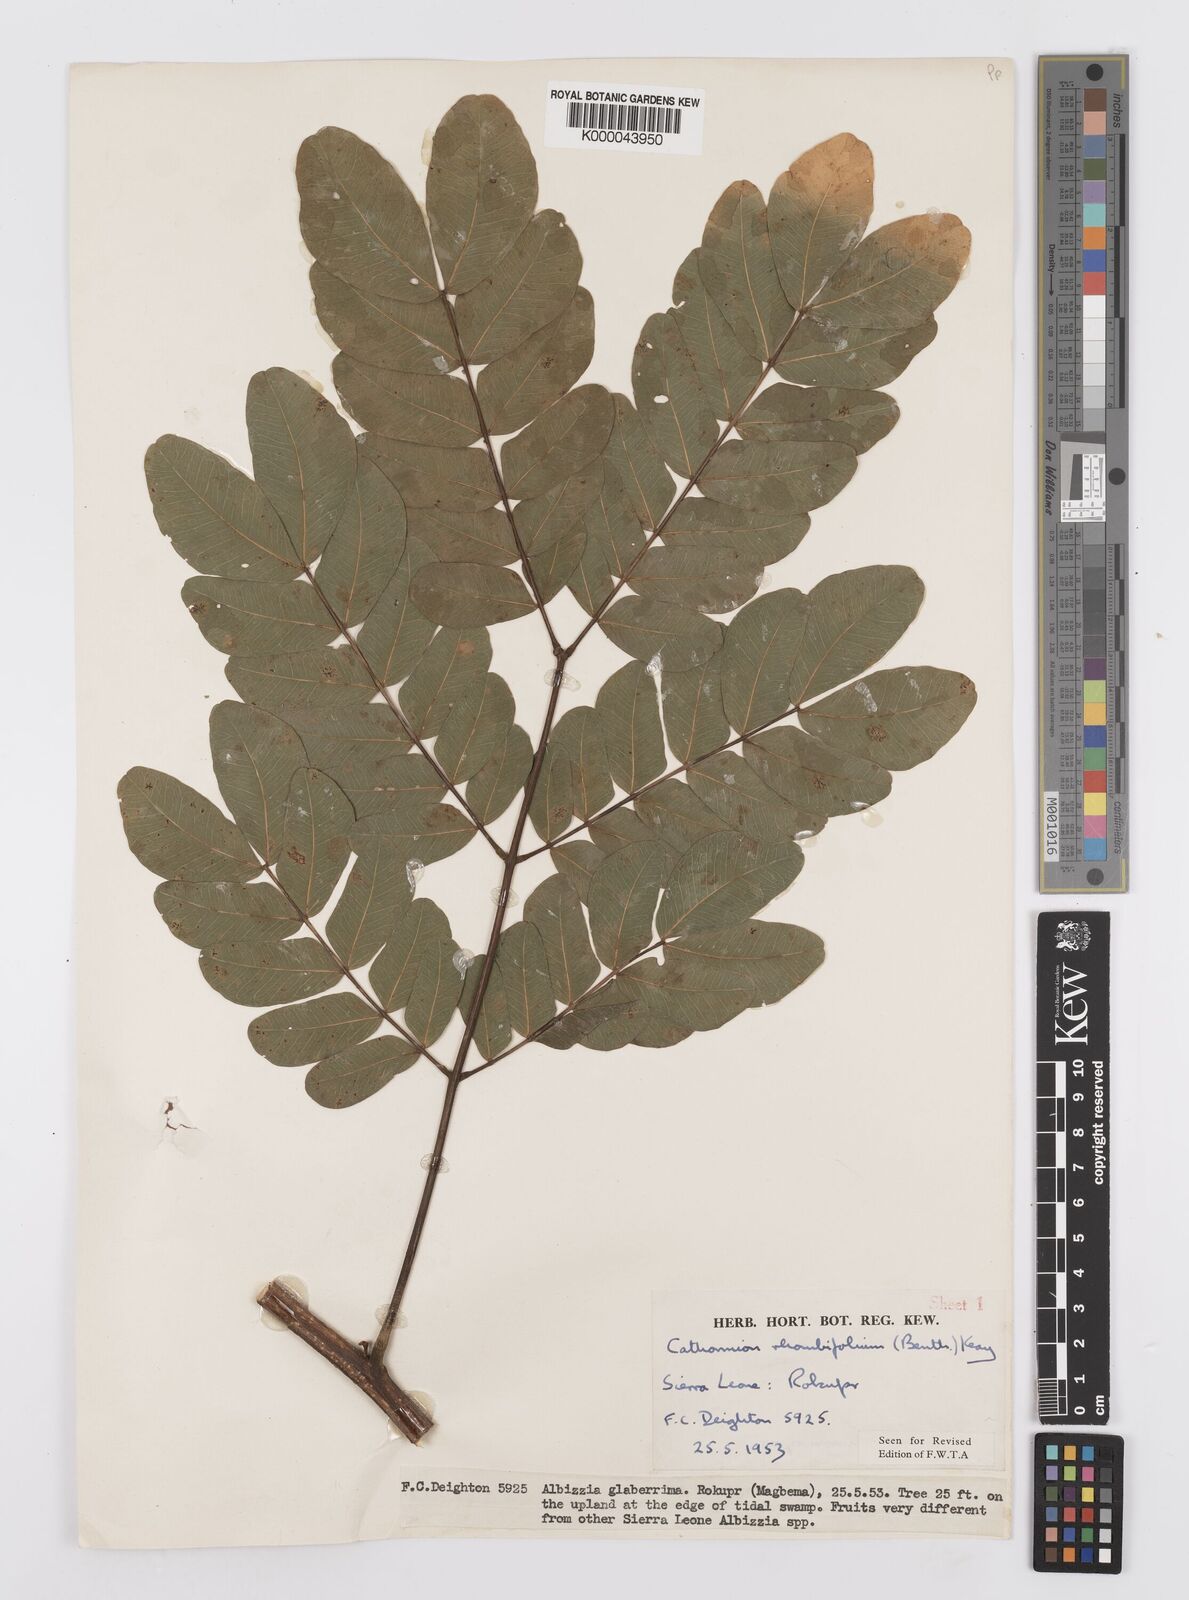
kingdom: Plantae
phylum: Tracheophyta
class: Magnoliopsida
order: Fabales
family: Fabaceae
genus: Albizia
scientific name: Albizia rhombifolia
